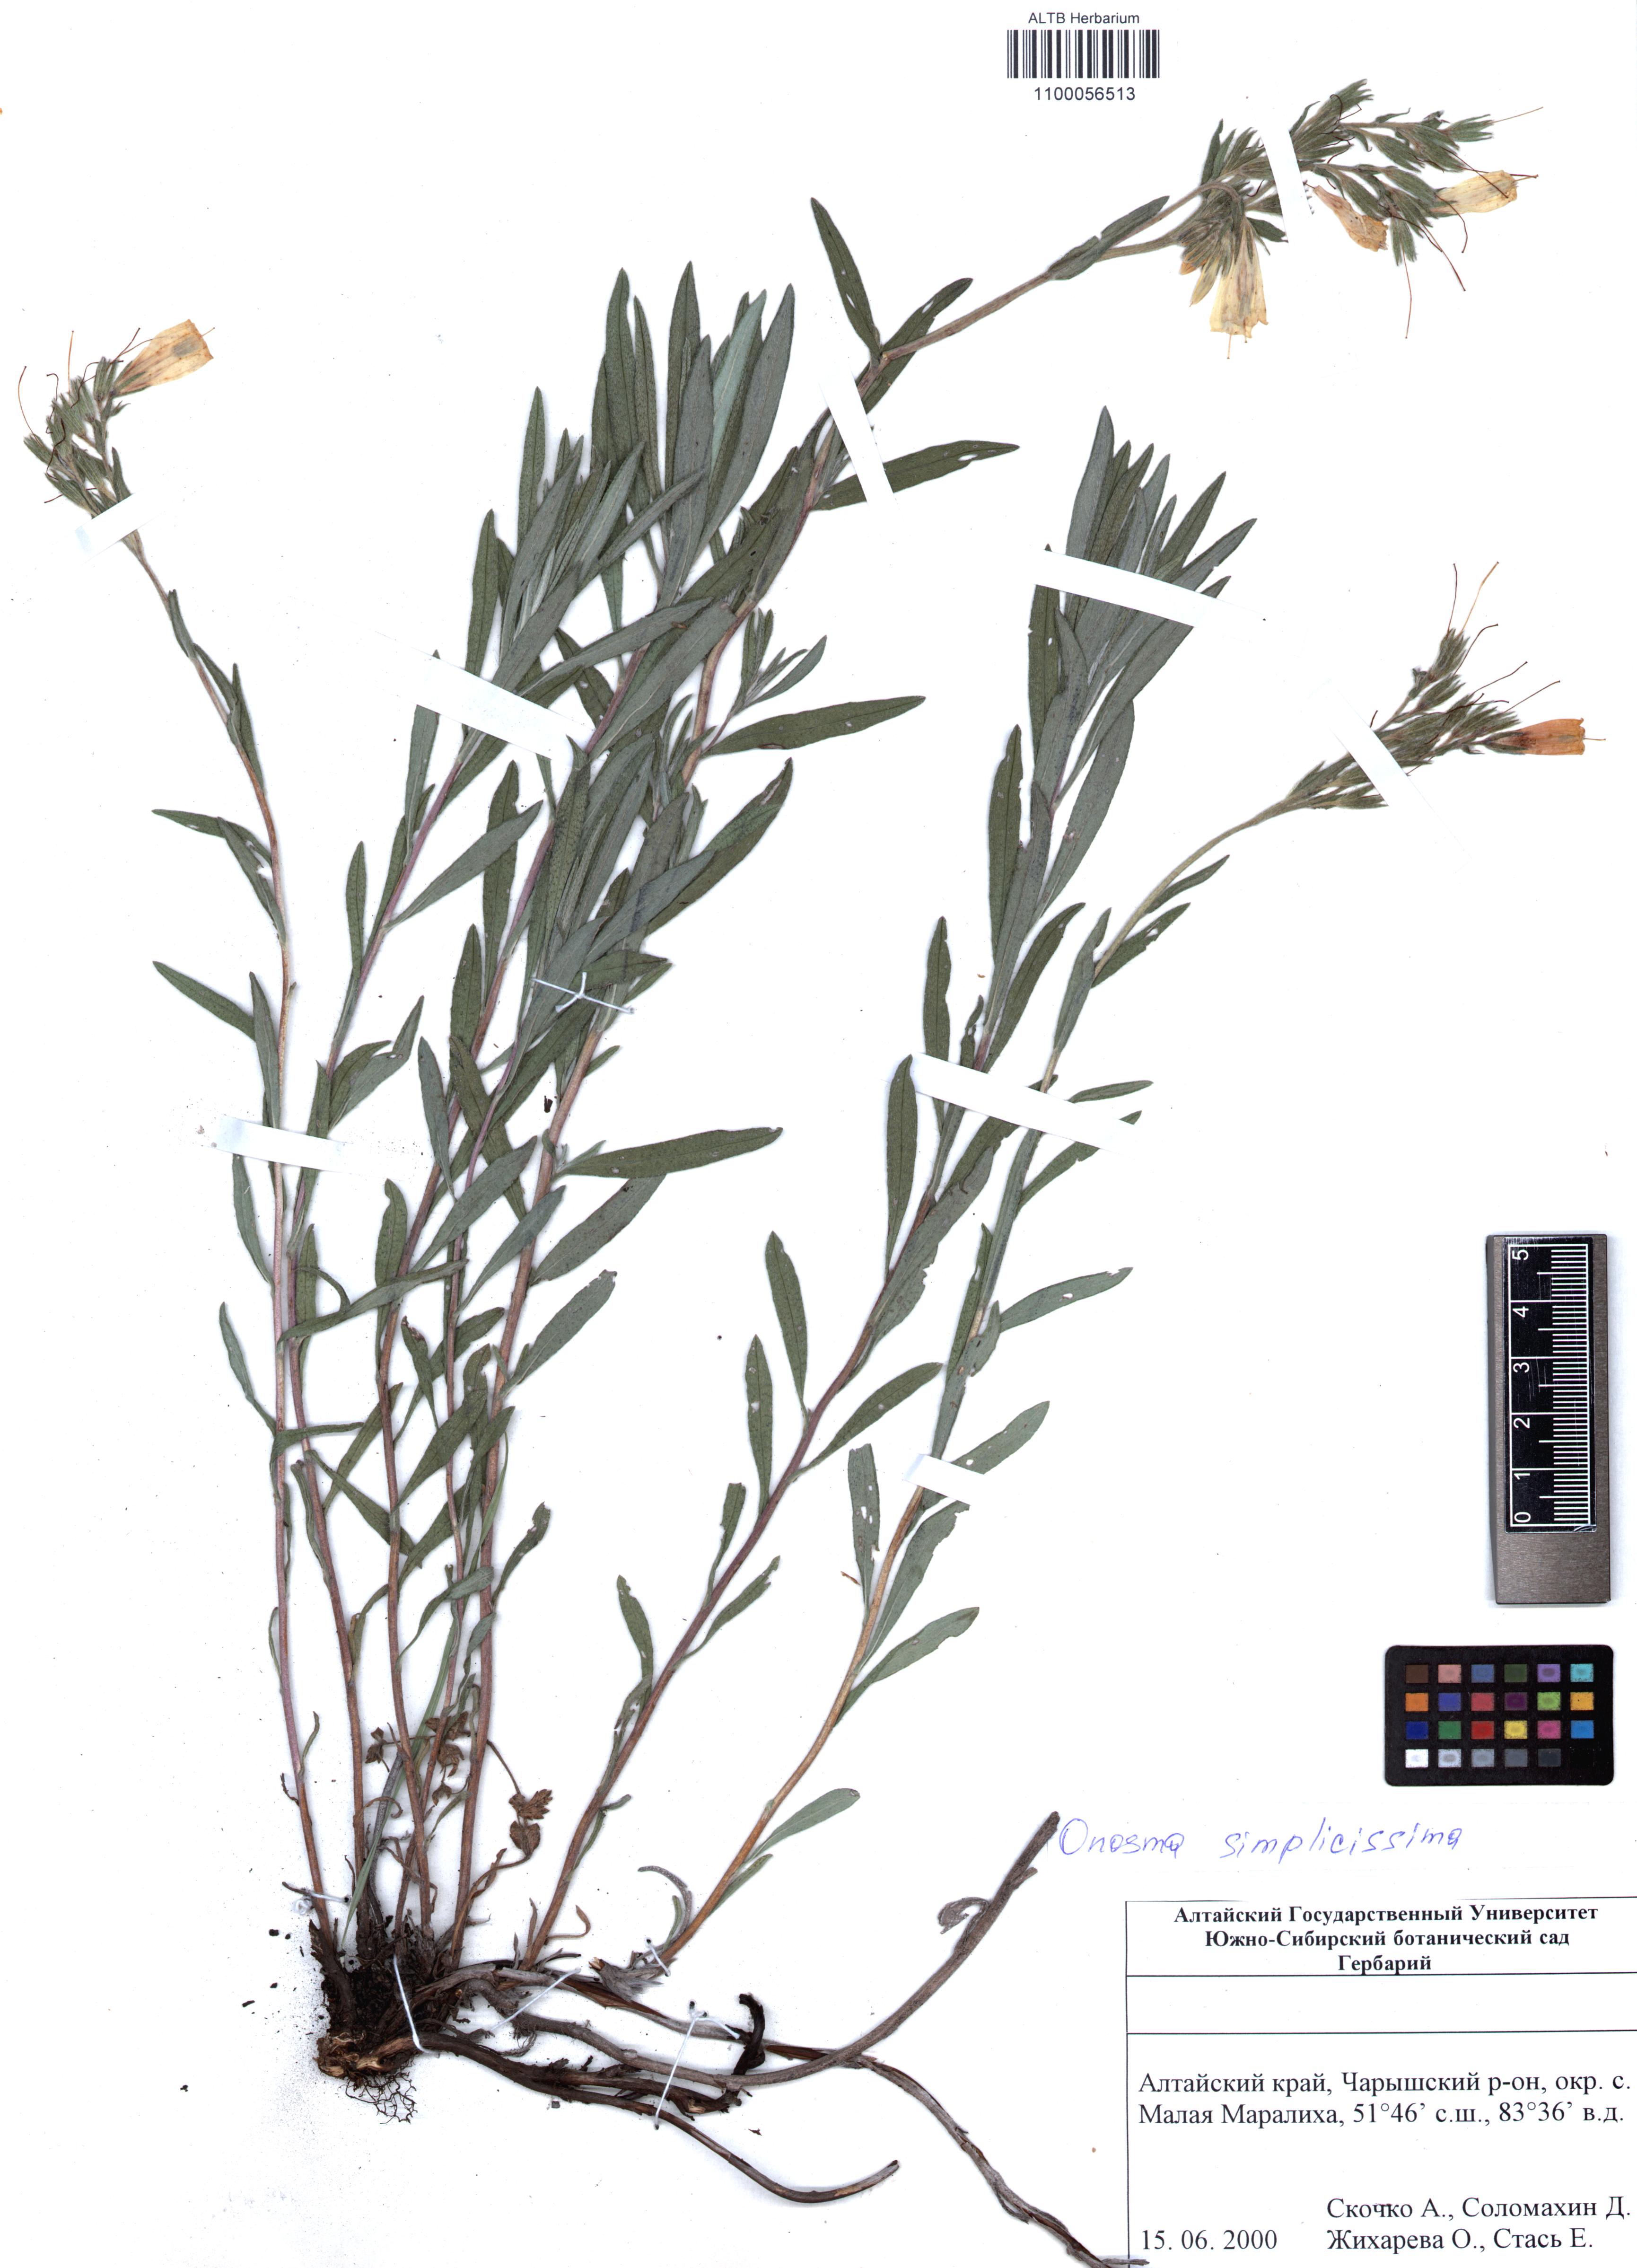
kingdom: Plantae
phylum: Tracheophyta
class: Magnoliopsida
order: Boraginales
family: Boraginaceae
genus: Onosma
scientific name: Onosma simplicissima
